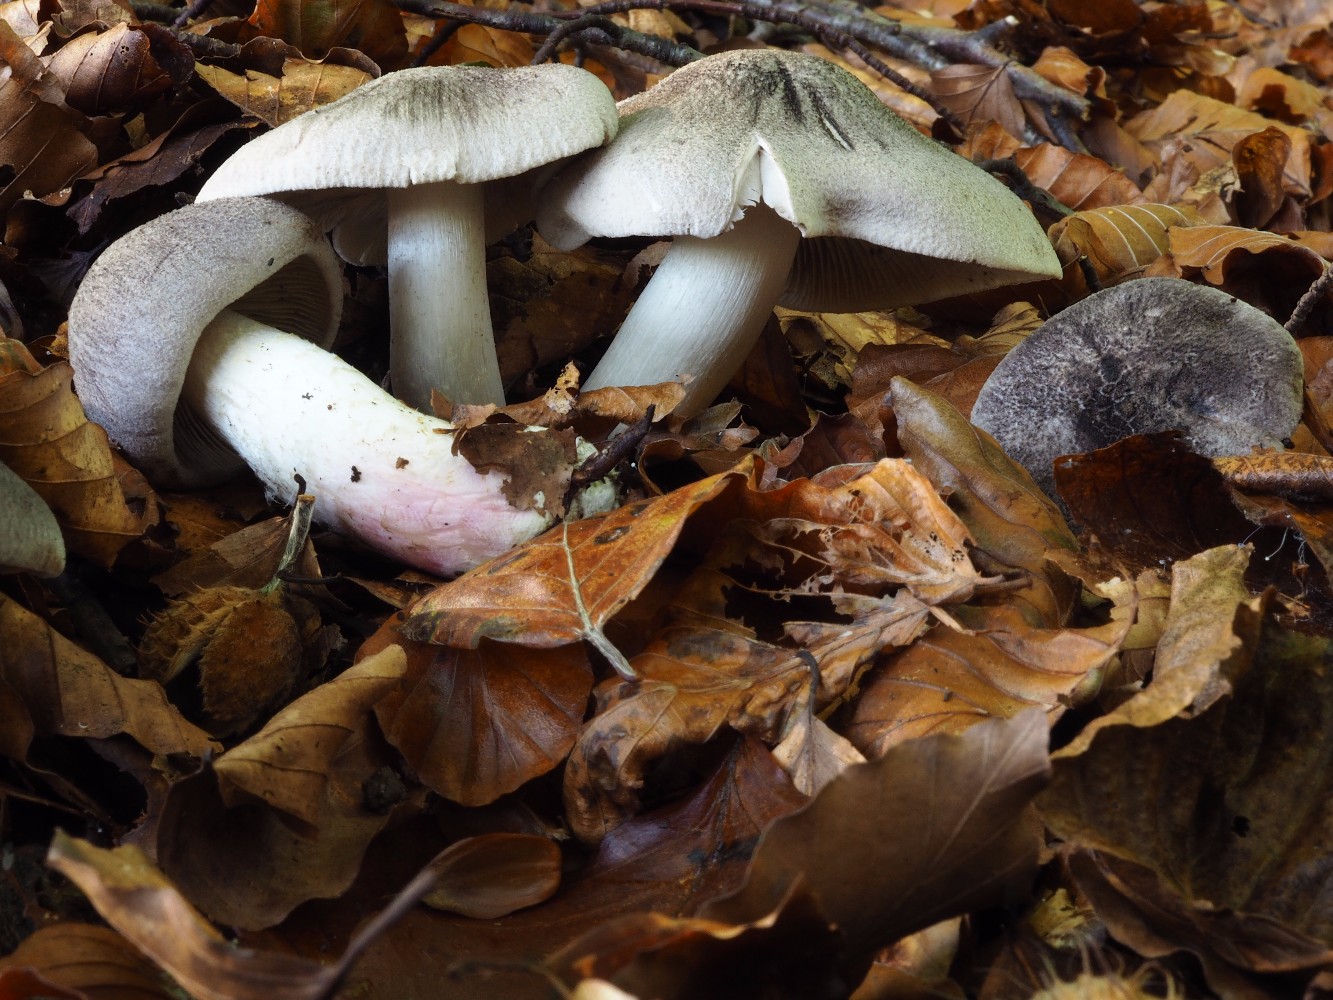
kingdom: Fungi
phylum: Basidiomycota
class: Agaricomycetes
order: Agaricales
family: Tricholomataceae
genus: Tricholoma
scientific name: Tricholoma orirubens
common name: rødbladet ridderhat
